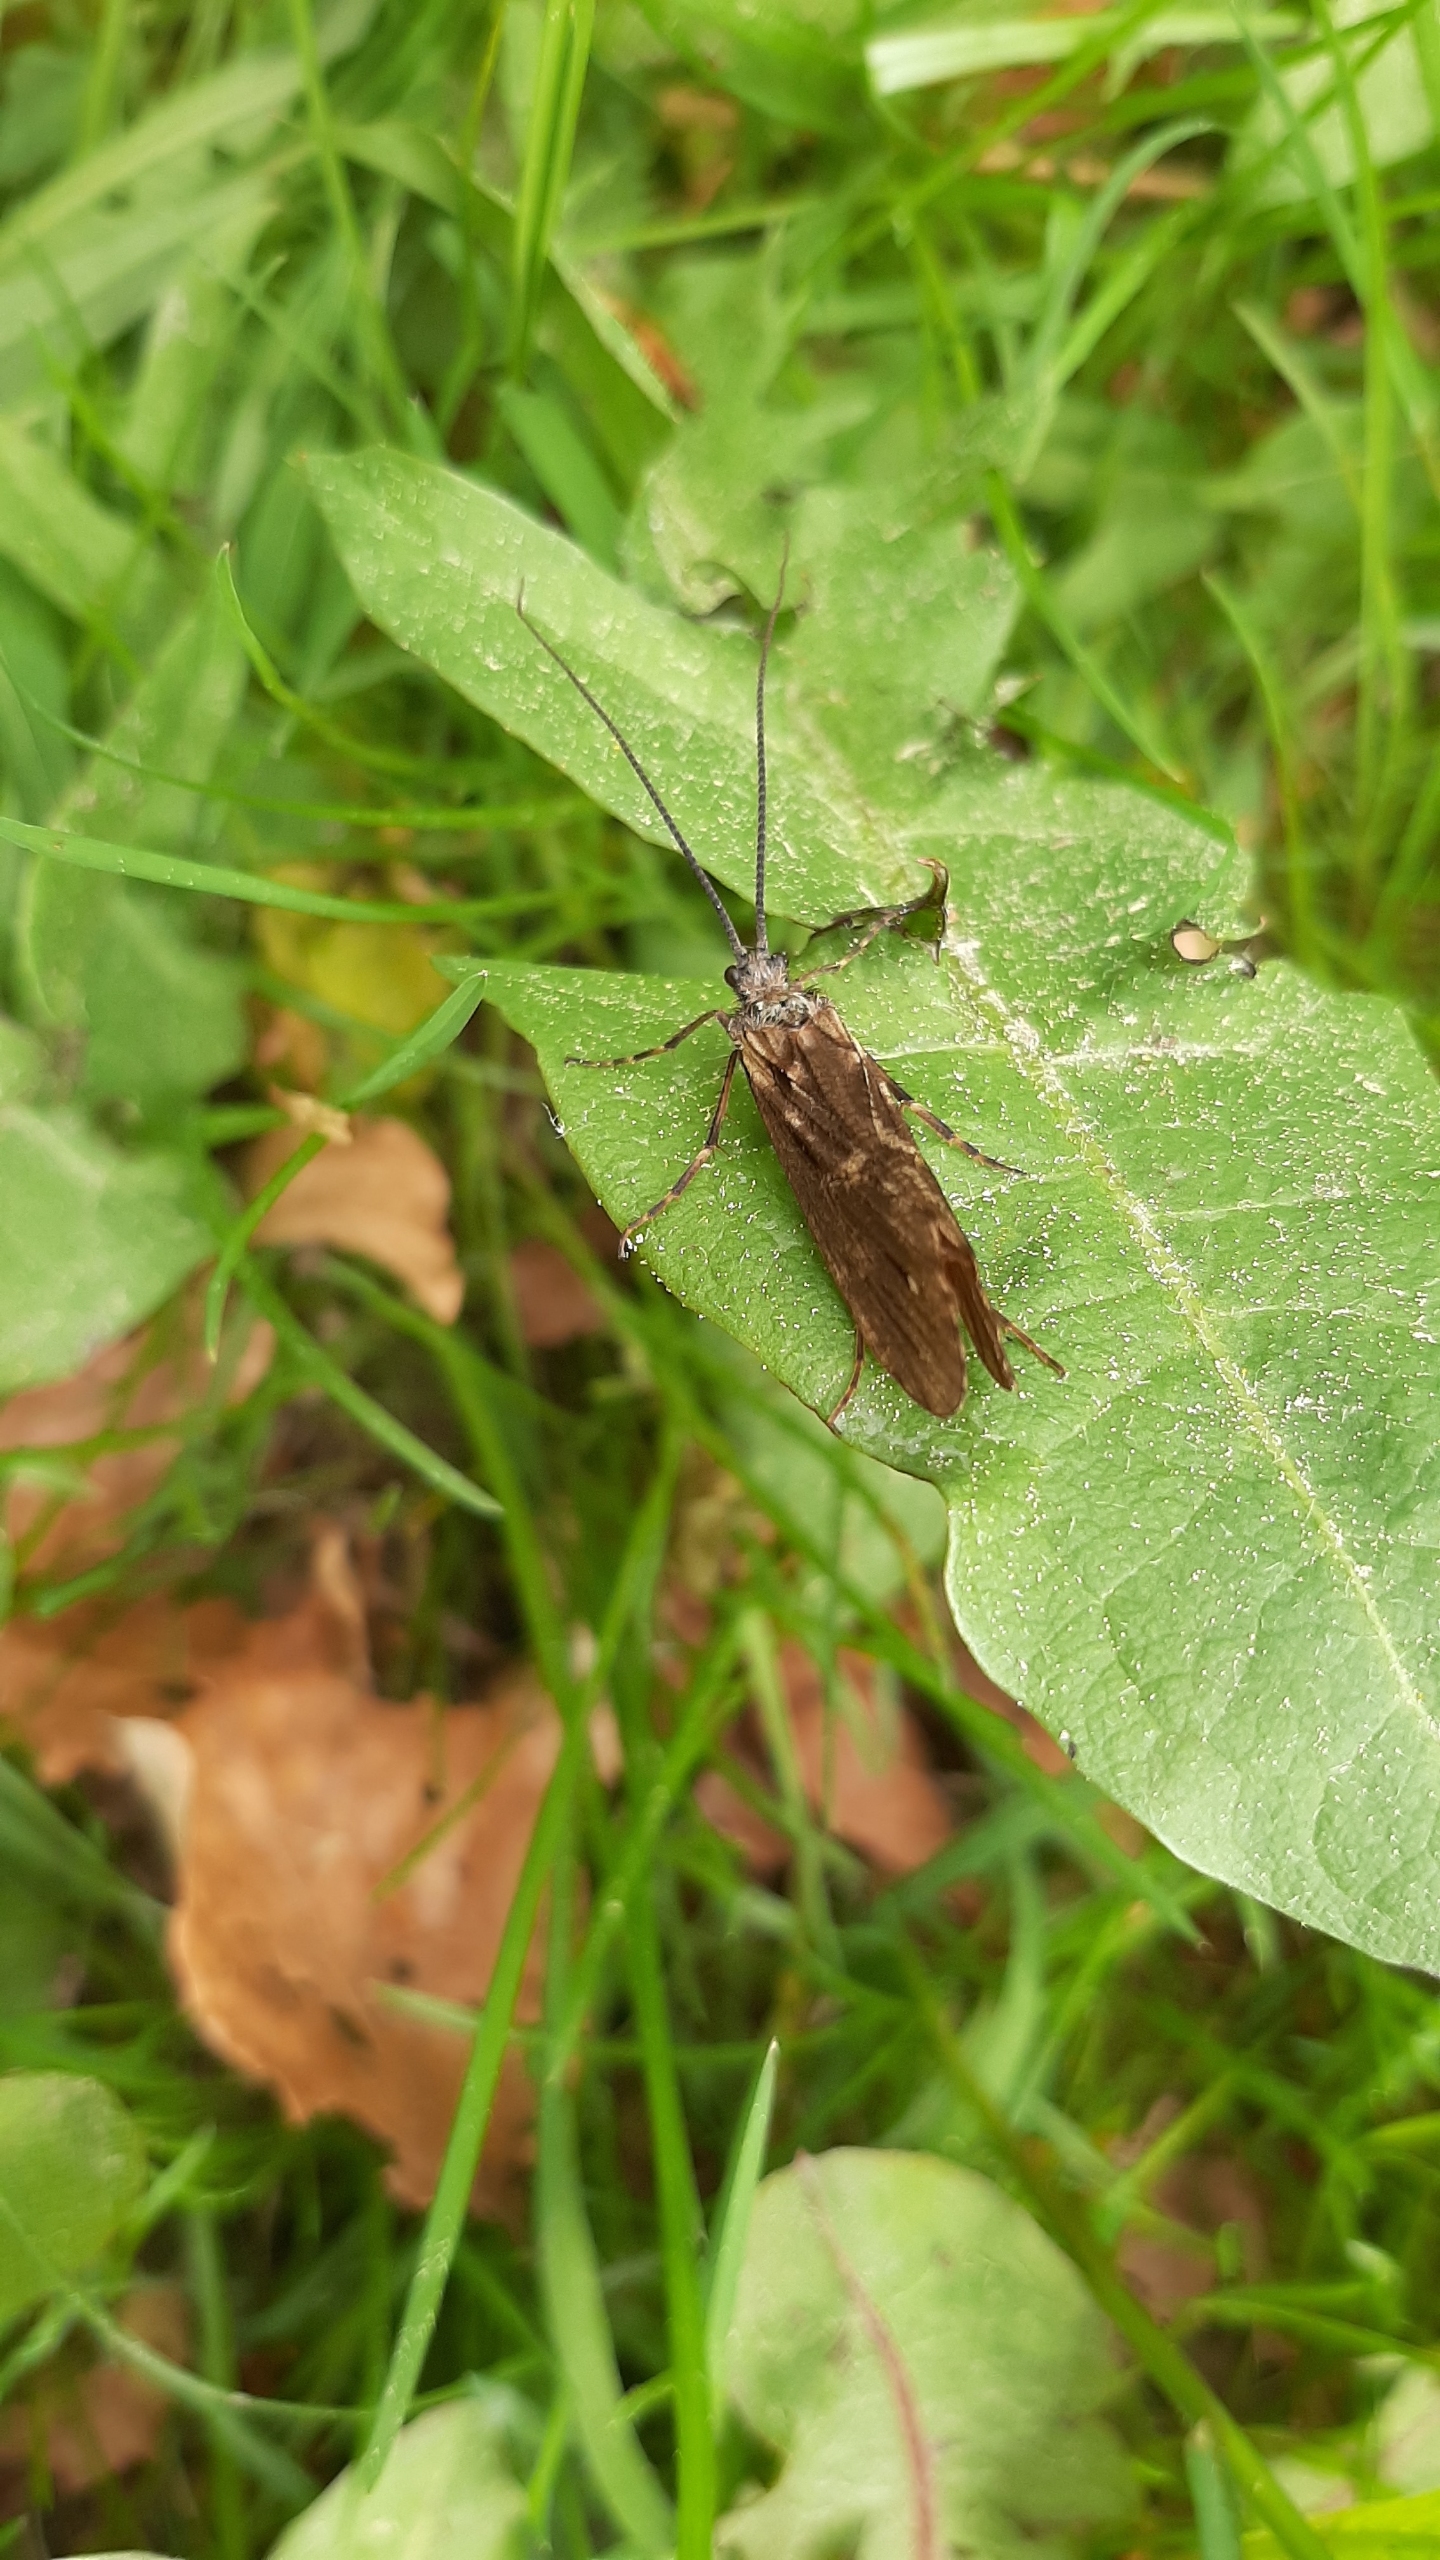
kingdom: Animalia
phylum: Arthropoda
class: Insecta
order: Trichoptera
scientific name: Trichoptera
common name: Vårfluer
